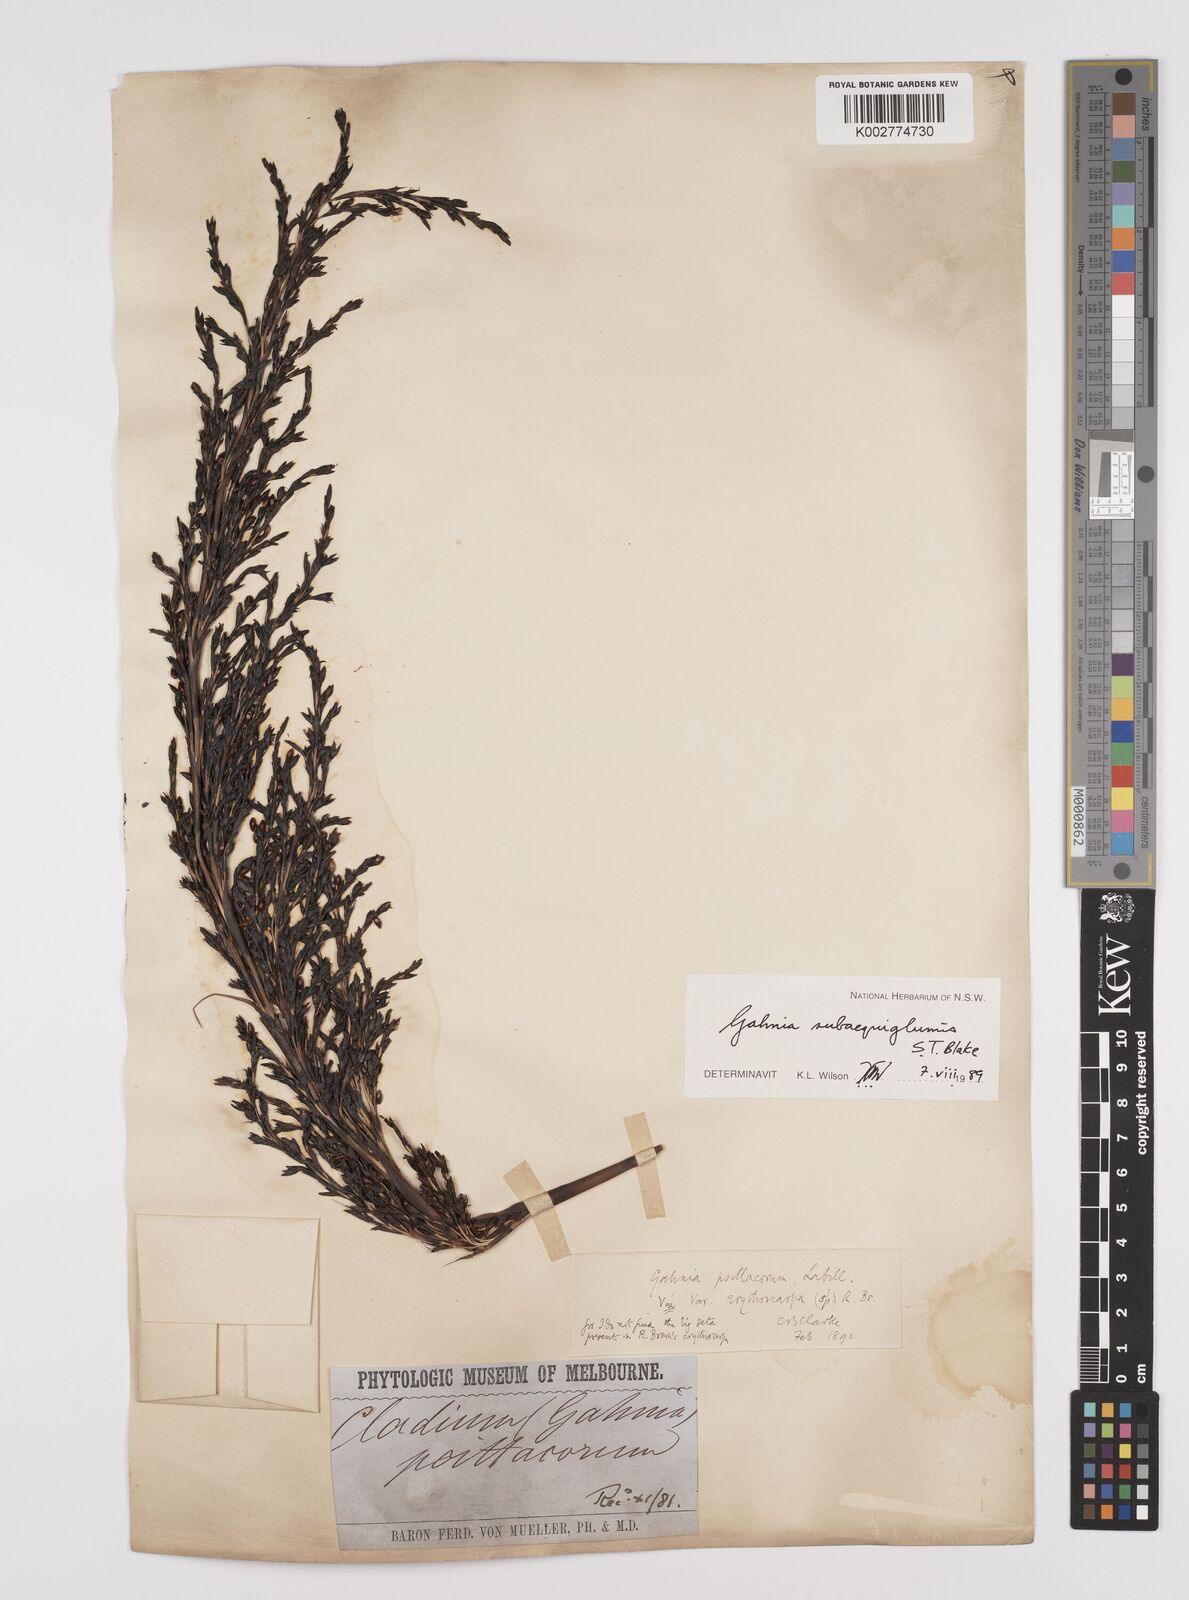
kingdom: Plantae
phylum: Tracheophyta
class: Liliopsida
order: Poales
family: Cyperaceae
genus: Gahnia
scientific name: Gahnia subaequiglumis
